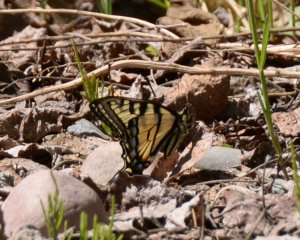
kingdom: Animalia
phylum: Arthropoda
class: Insecta
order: Lepidoptera
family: Papilionidae
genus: Pterourus
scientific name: Pterourus canadensis
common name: Canadian Tiger Swallowtail
